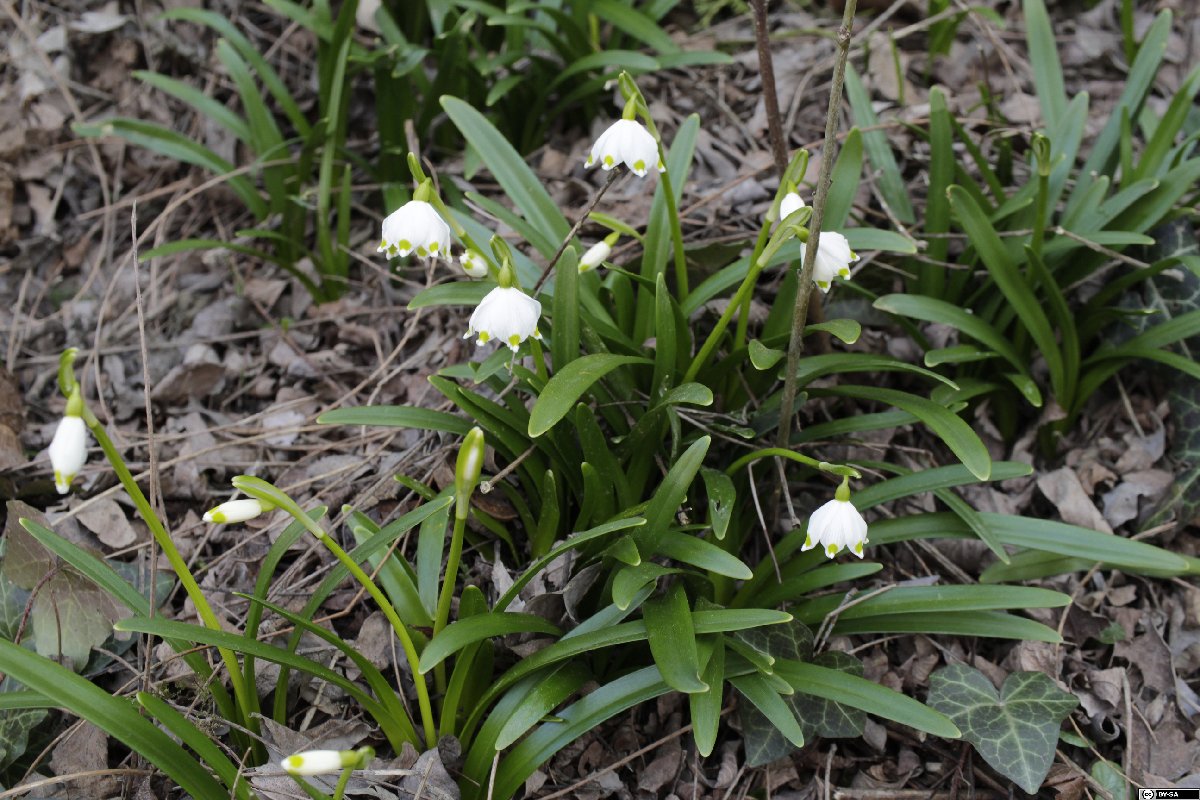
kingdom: Plantae
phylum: Tracheophyta
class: Liliopsida
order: Asparagales
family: Amaryllidaceae
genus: Leucojum
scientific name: Leucojum vernum
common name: Spring snowflake
